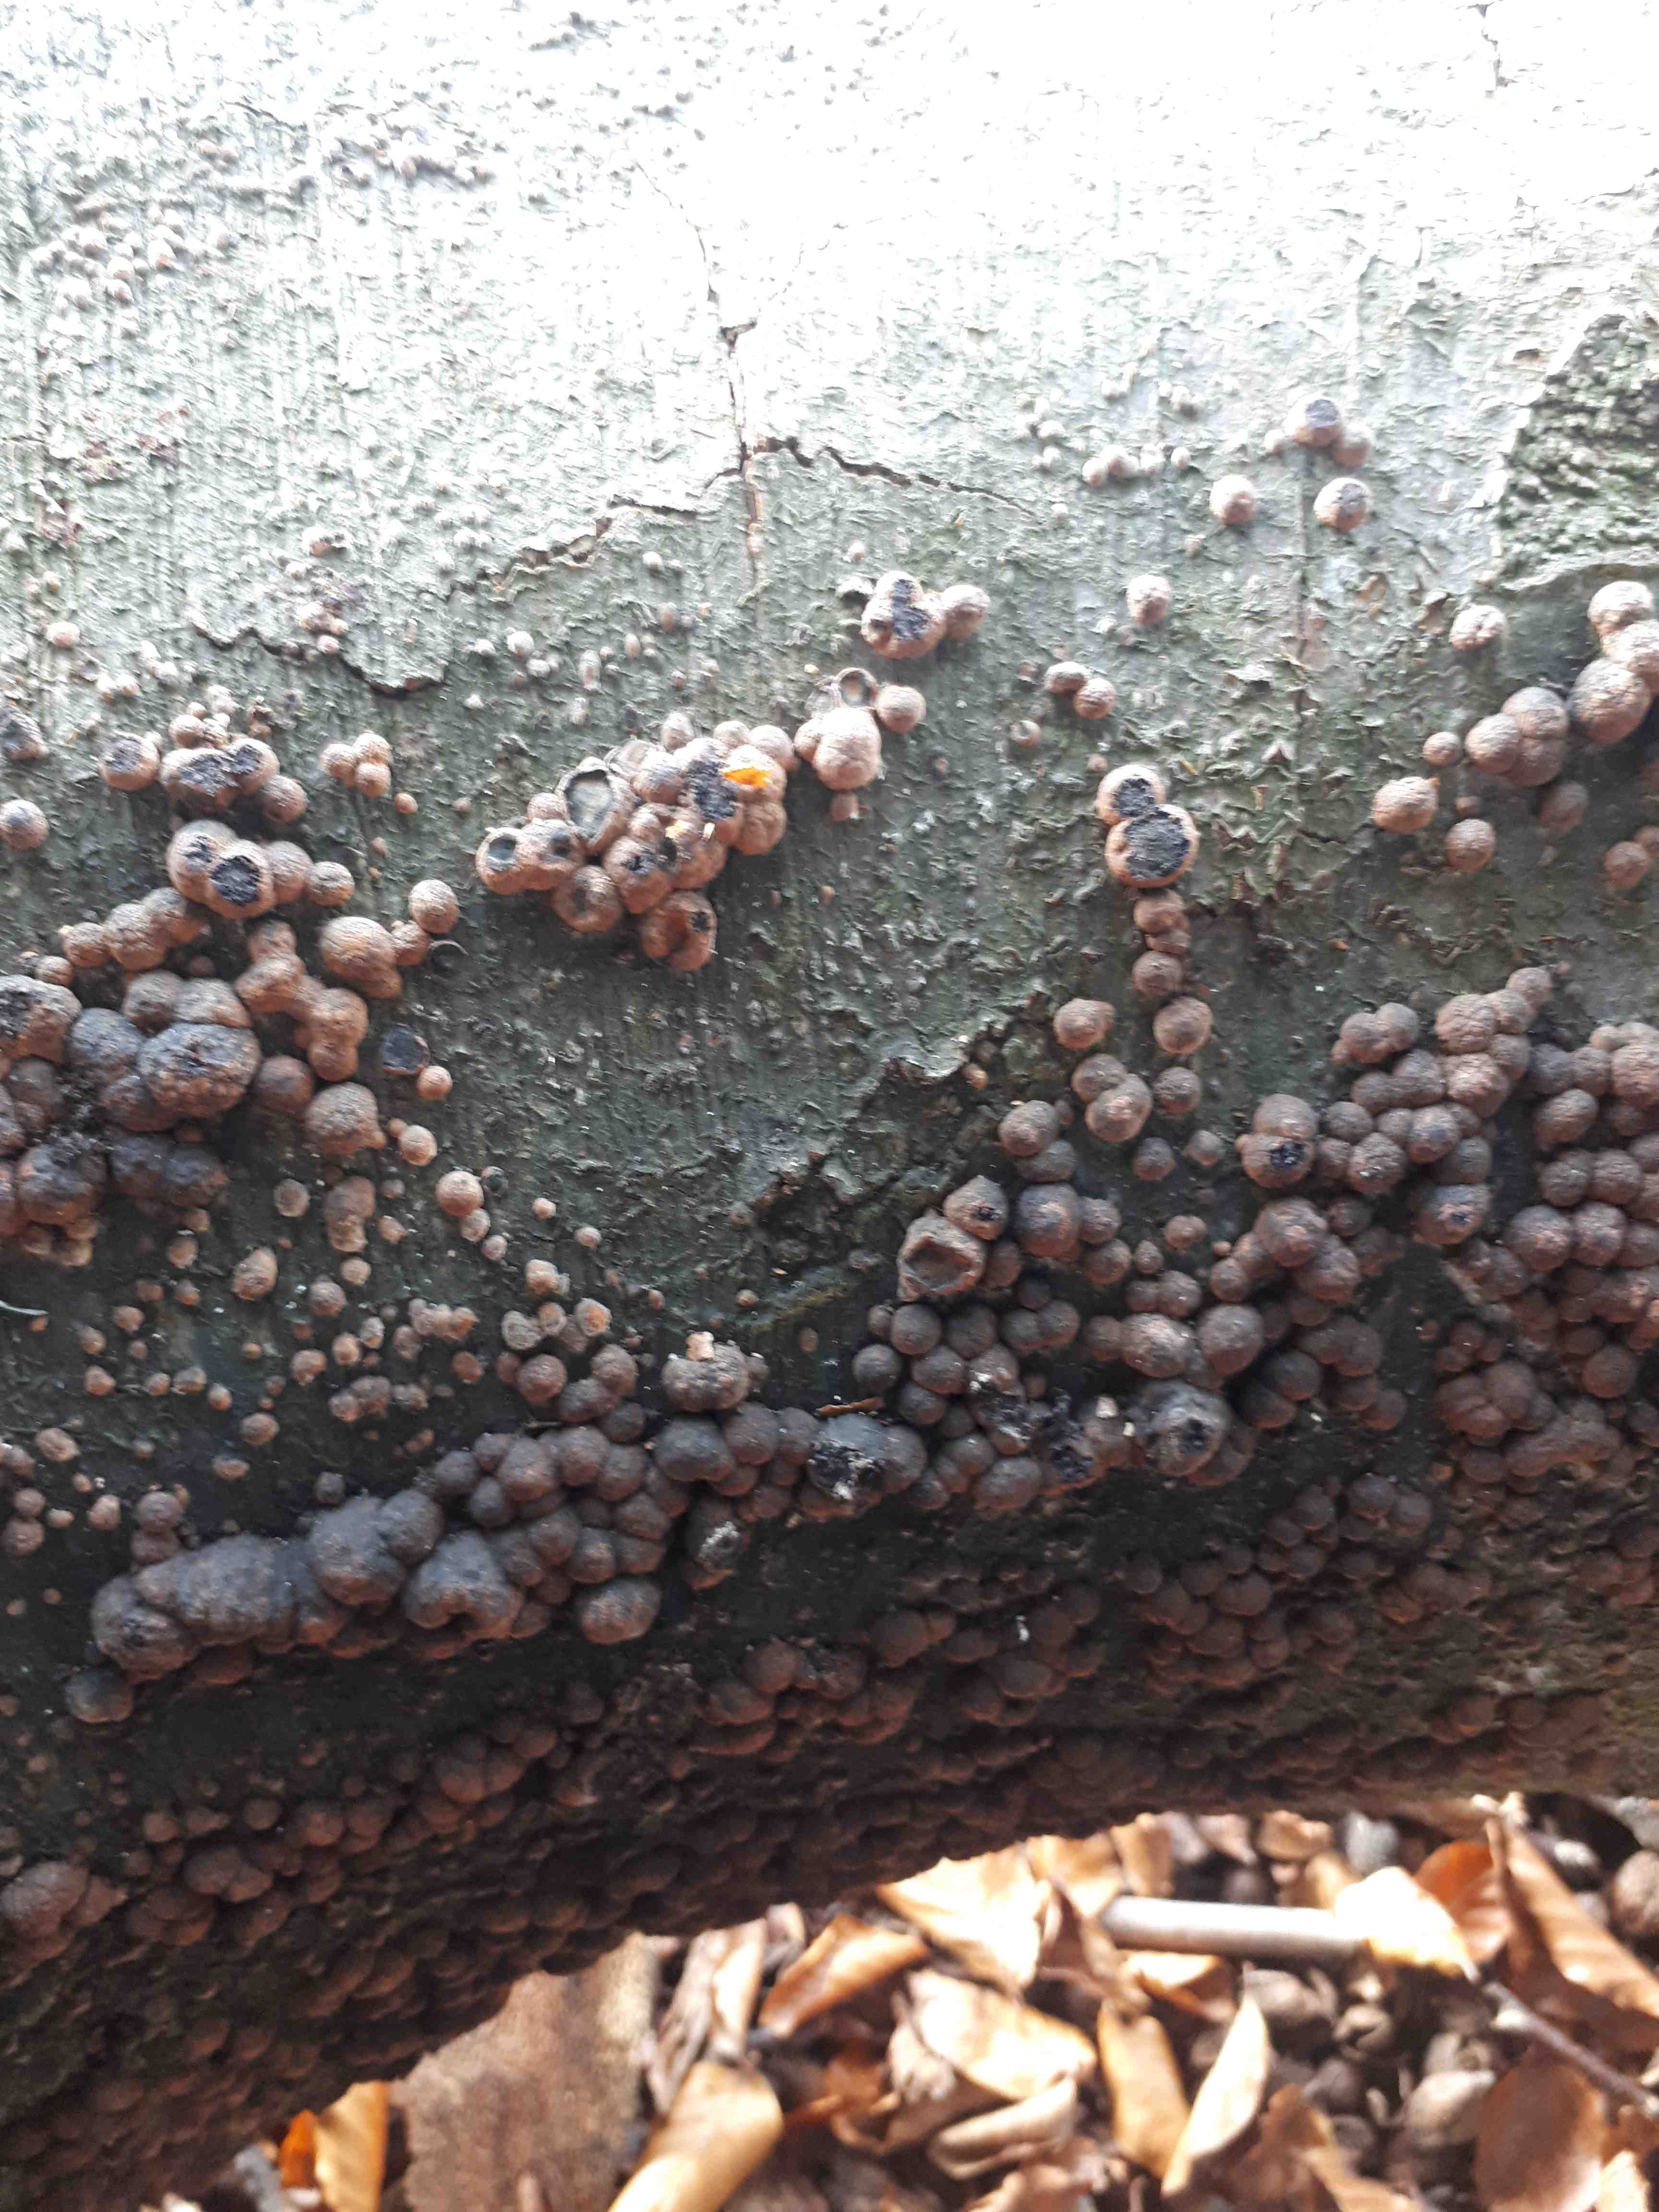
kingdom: Fungi
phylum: Ascomycota
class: Sordariomycetes
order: Xylariales
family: Hypoxylaceae
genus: Hypoxylon
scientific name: Hypoxylon fragiforme
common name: kuljordbær
